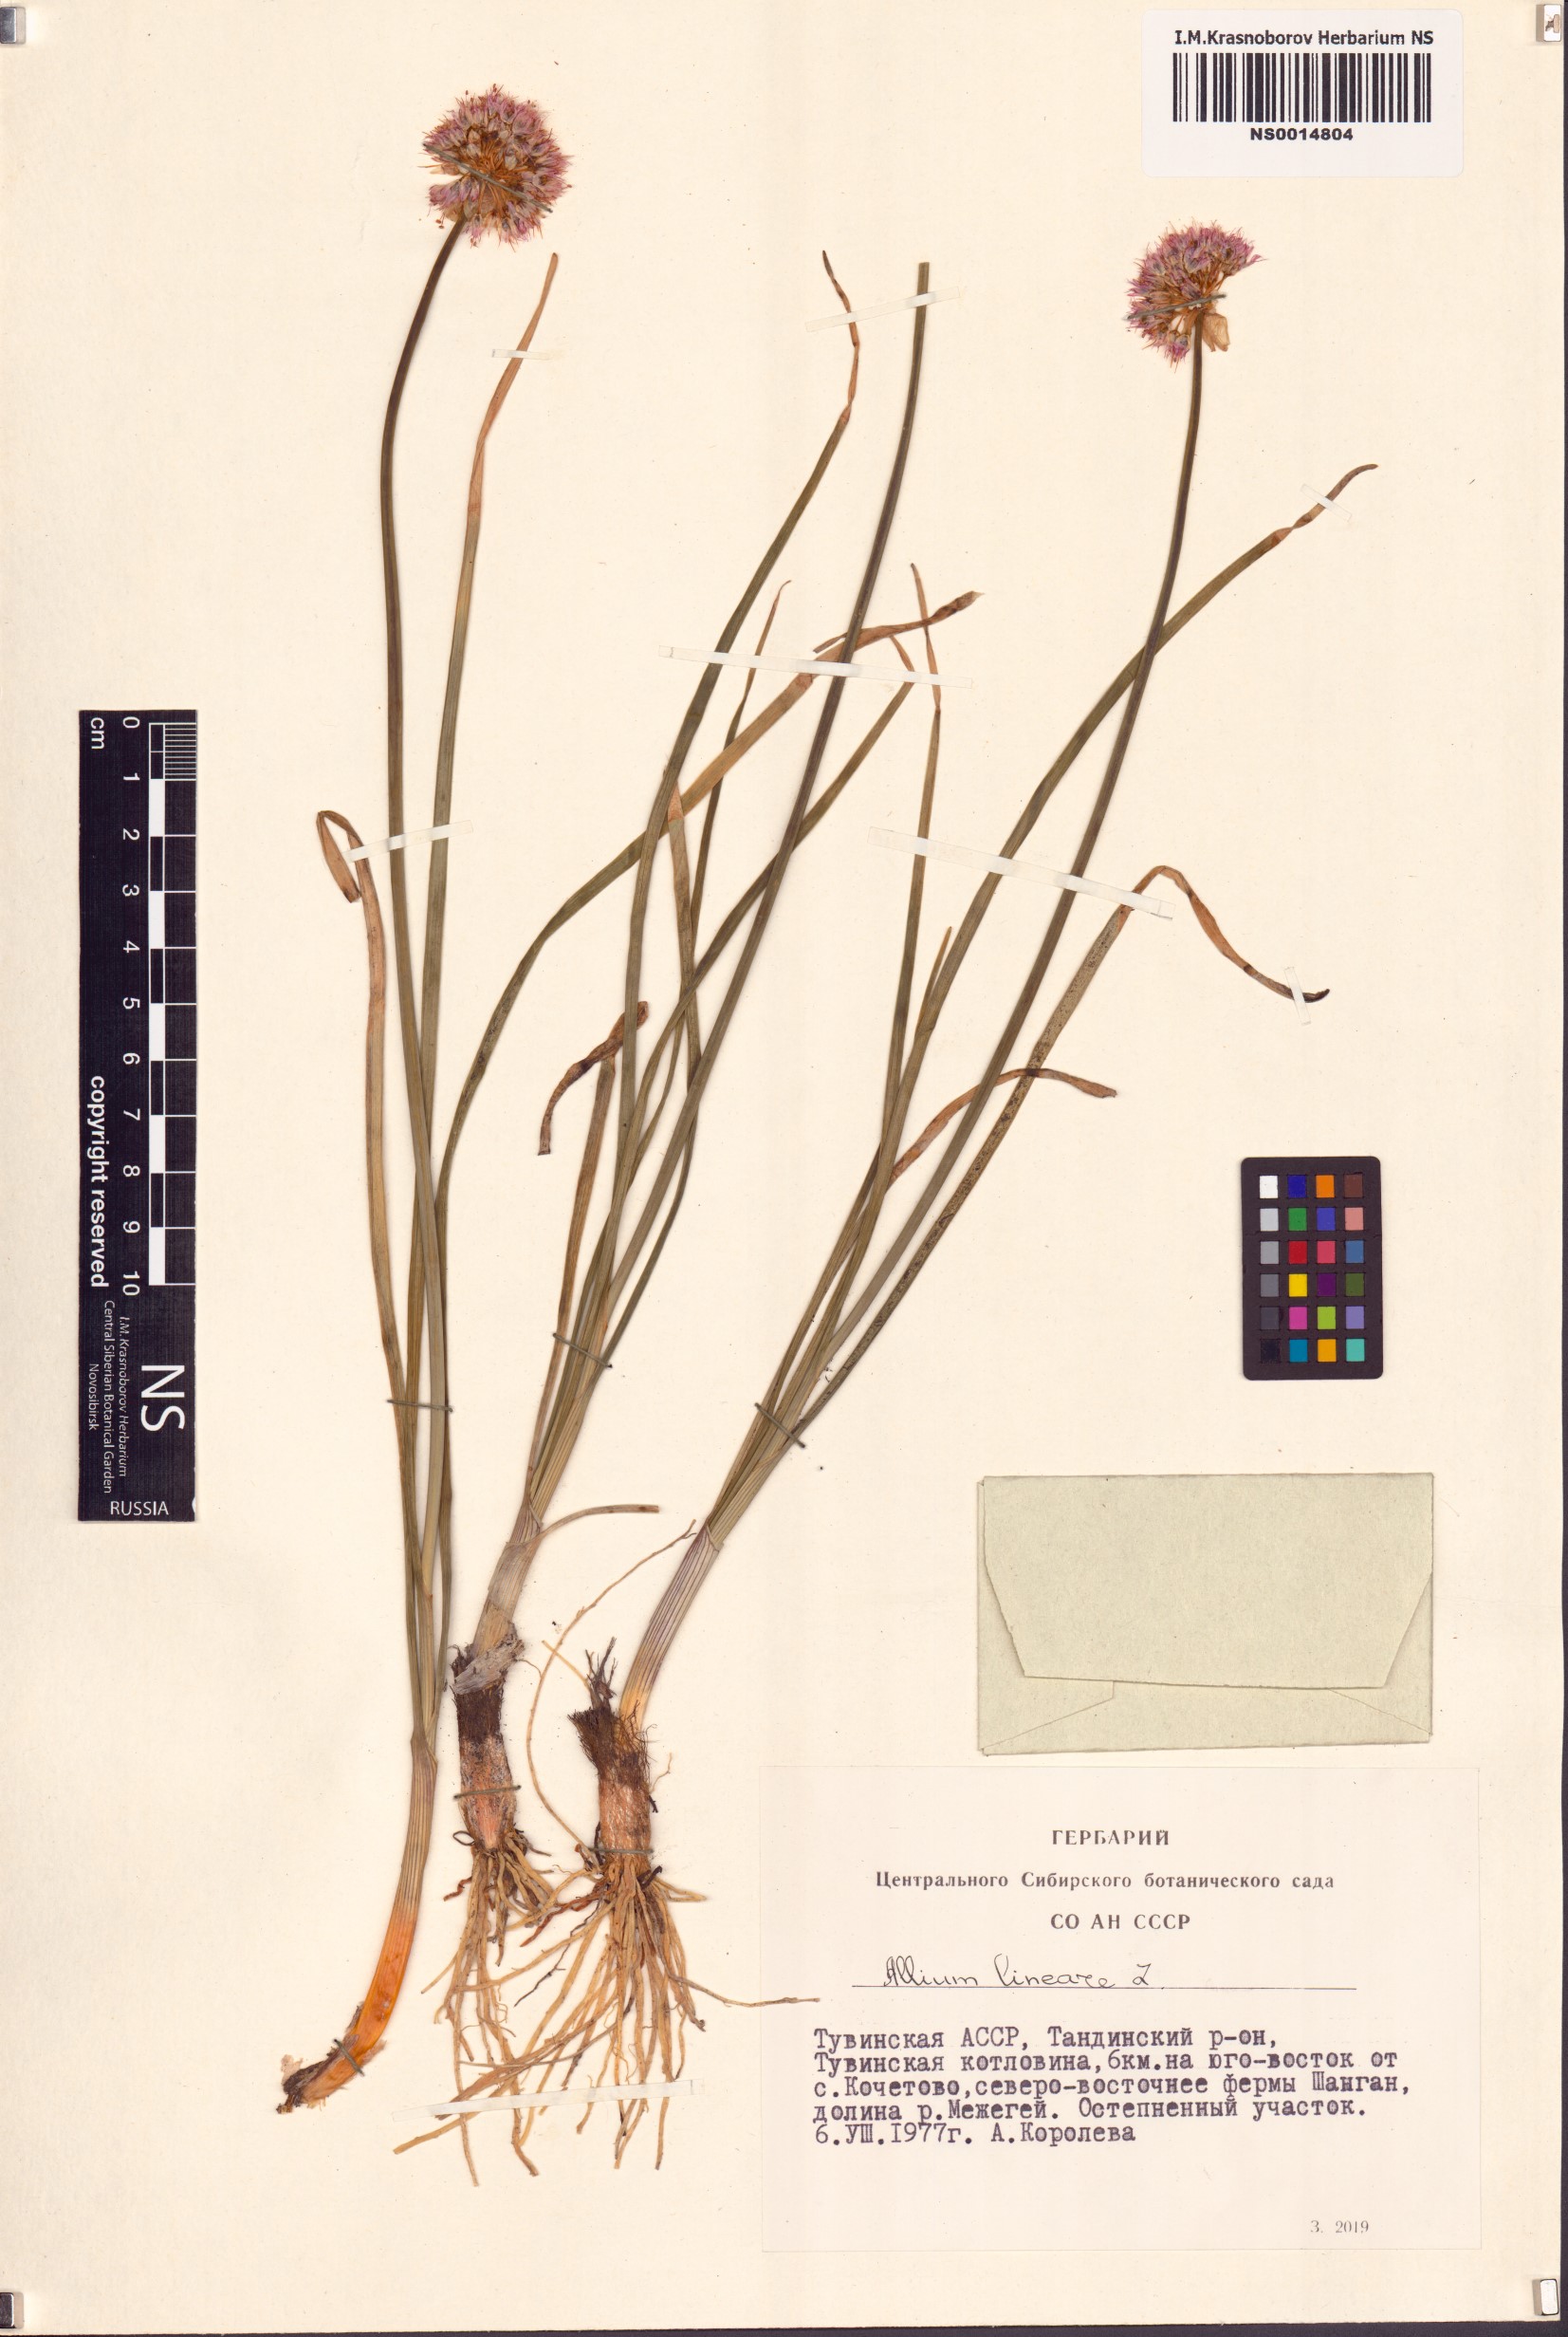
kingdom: Plantae
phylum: Tracheophyta
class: Liliopsida
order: Asparagales
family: Amaryllidaceae
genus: Allium
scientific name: Allium lineare
